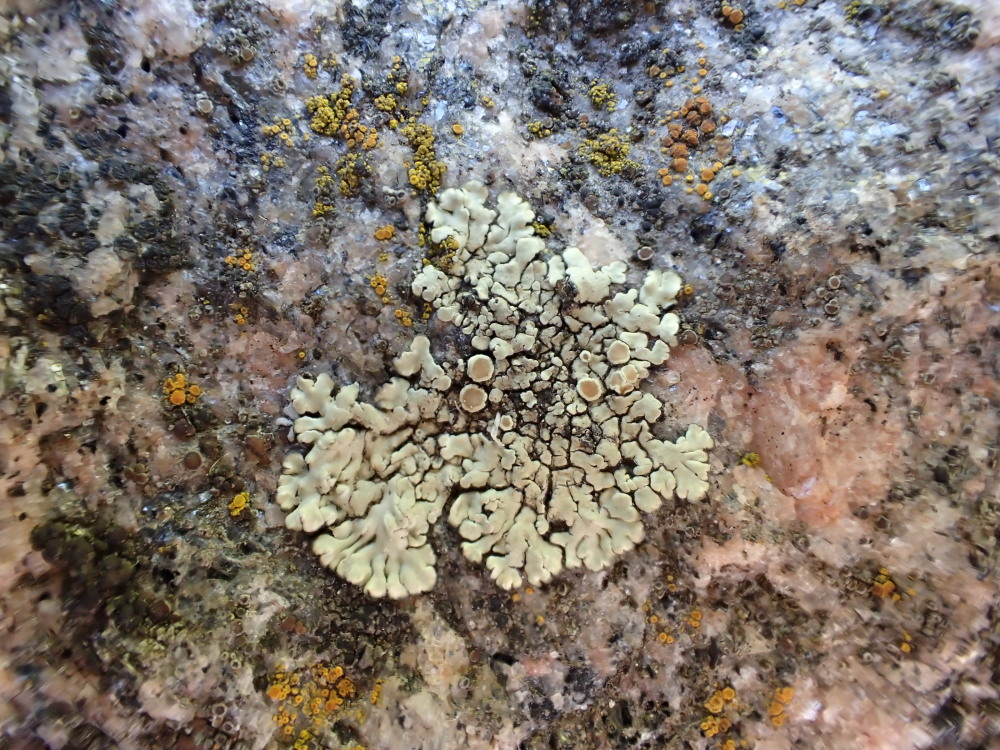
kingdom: Fungi
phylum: Ascomycota
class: Lecanoromycetes
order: Lecanorales
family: Lecanoraceae
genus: Protoparmeliopsis
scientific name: Protoparmeliopsis muralis
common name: randfliget kantskivelav
